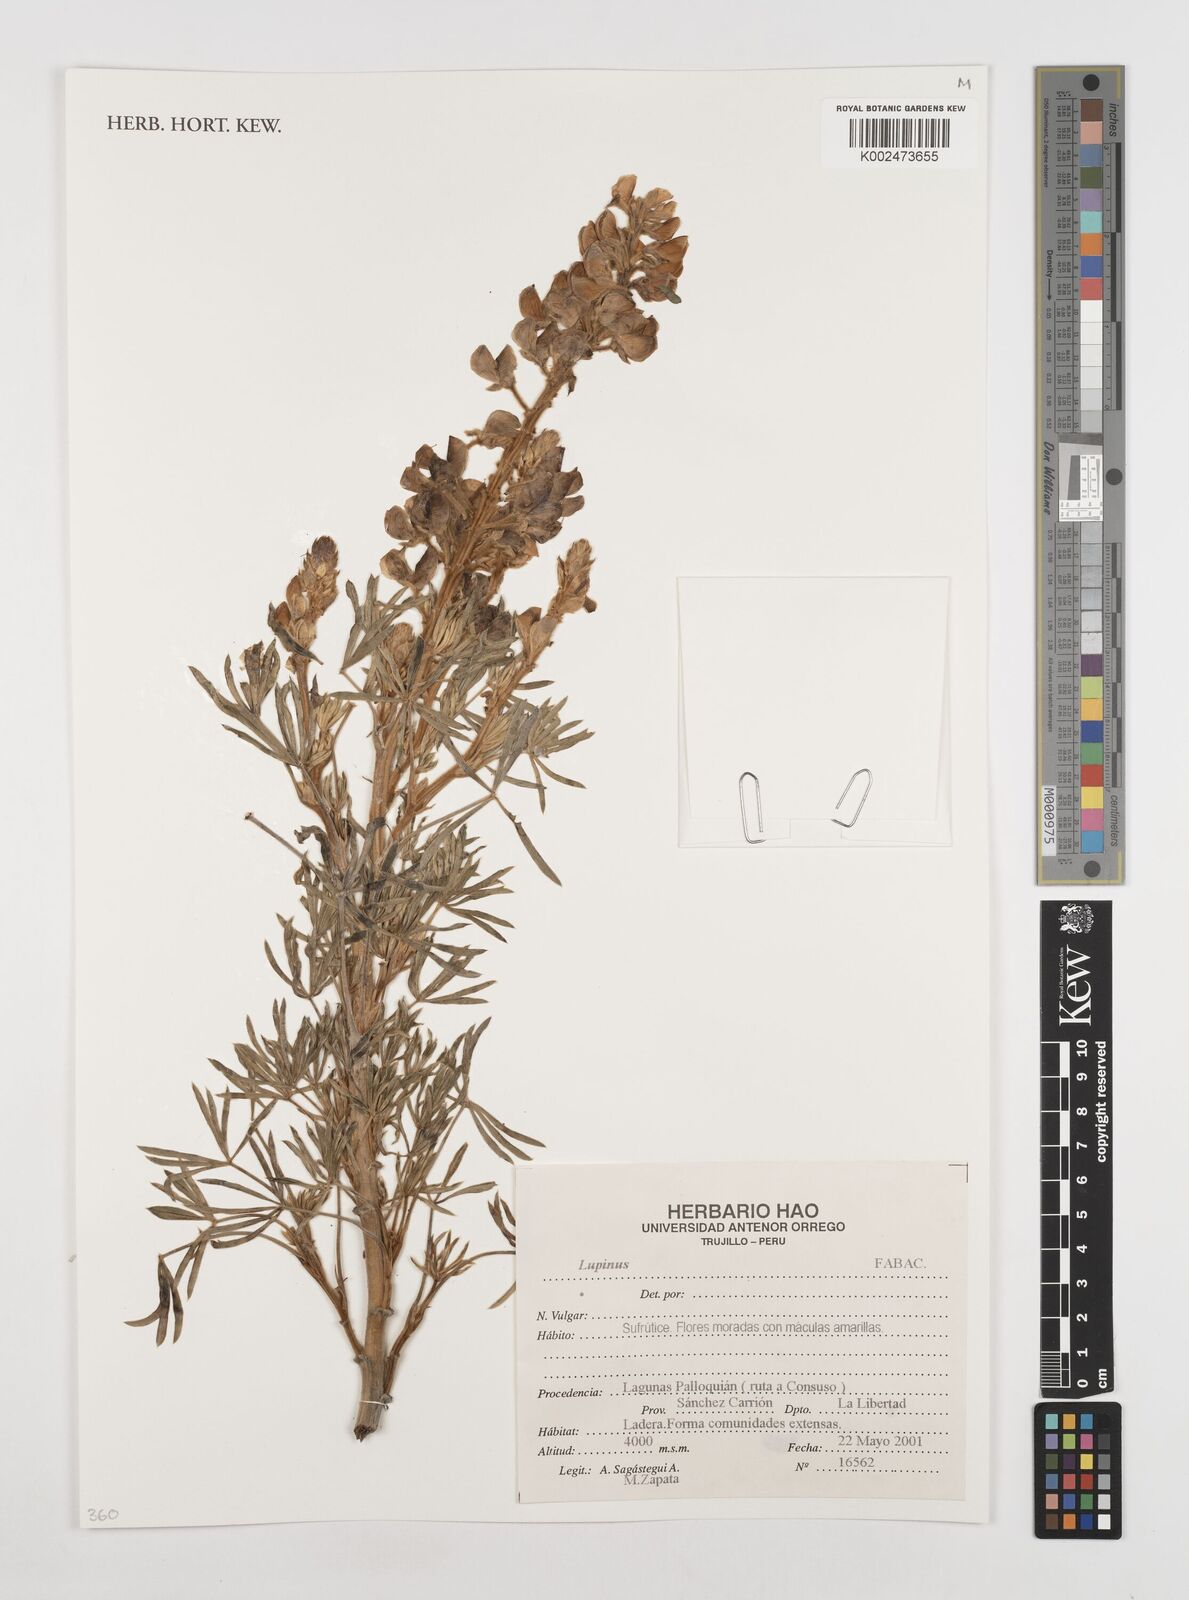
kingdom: Plantae
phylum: Tracheophyta
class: Magnoliopsida
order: Fabales
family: Fabaceae
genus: Lupinus
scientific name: Lupinus
